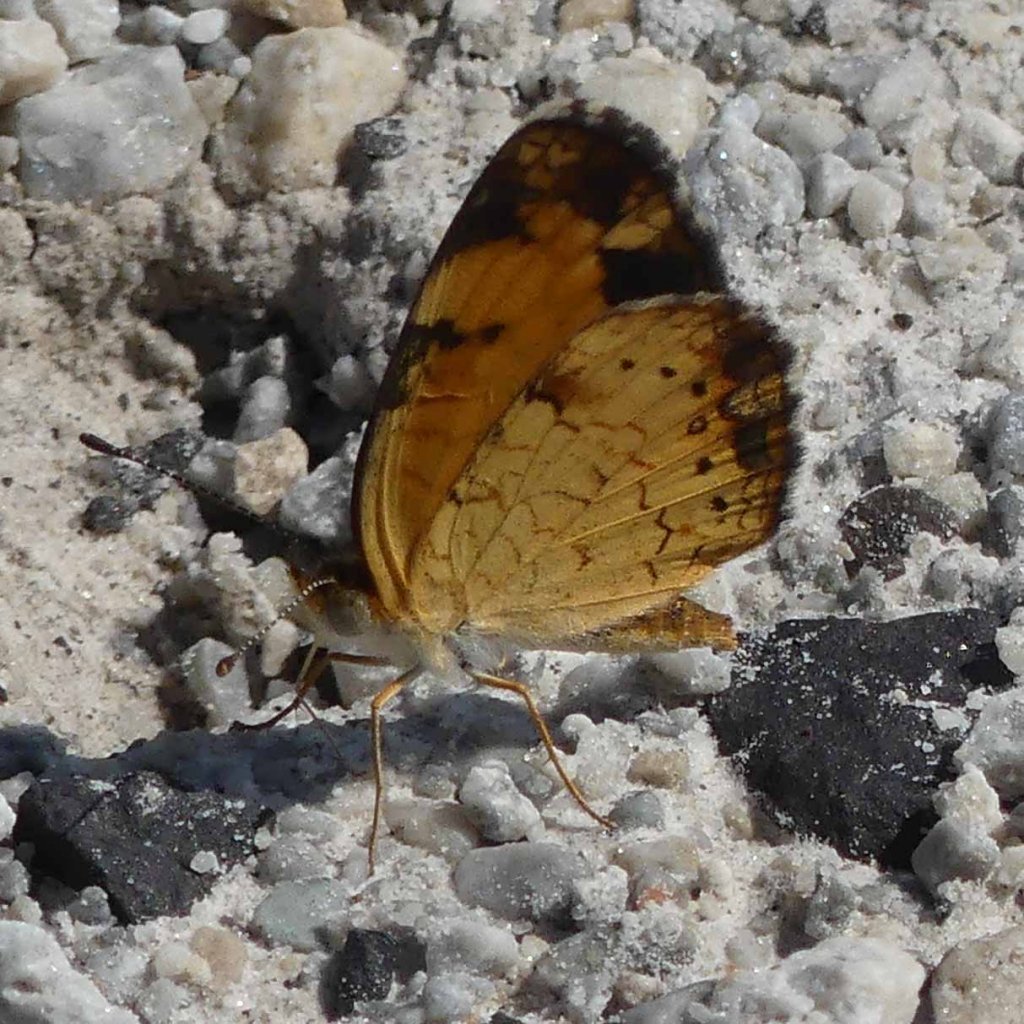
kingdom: Animalia
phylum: Arthropoda
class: Insecta
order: Lepidoptera
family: Nymphalidae
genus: Phyciodes
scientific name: Phyciodes tharos
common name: Pearl Crescent
